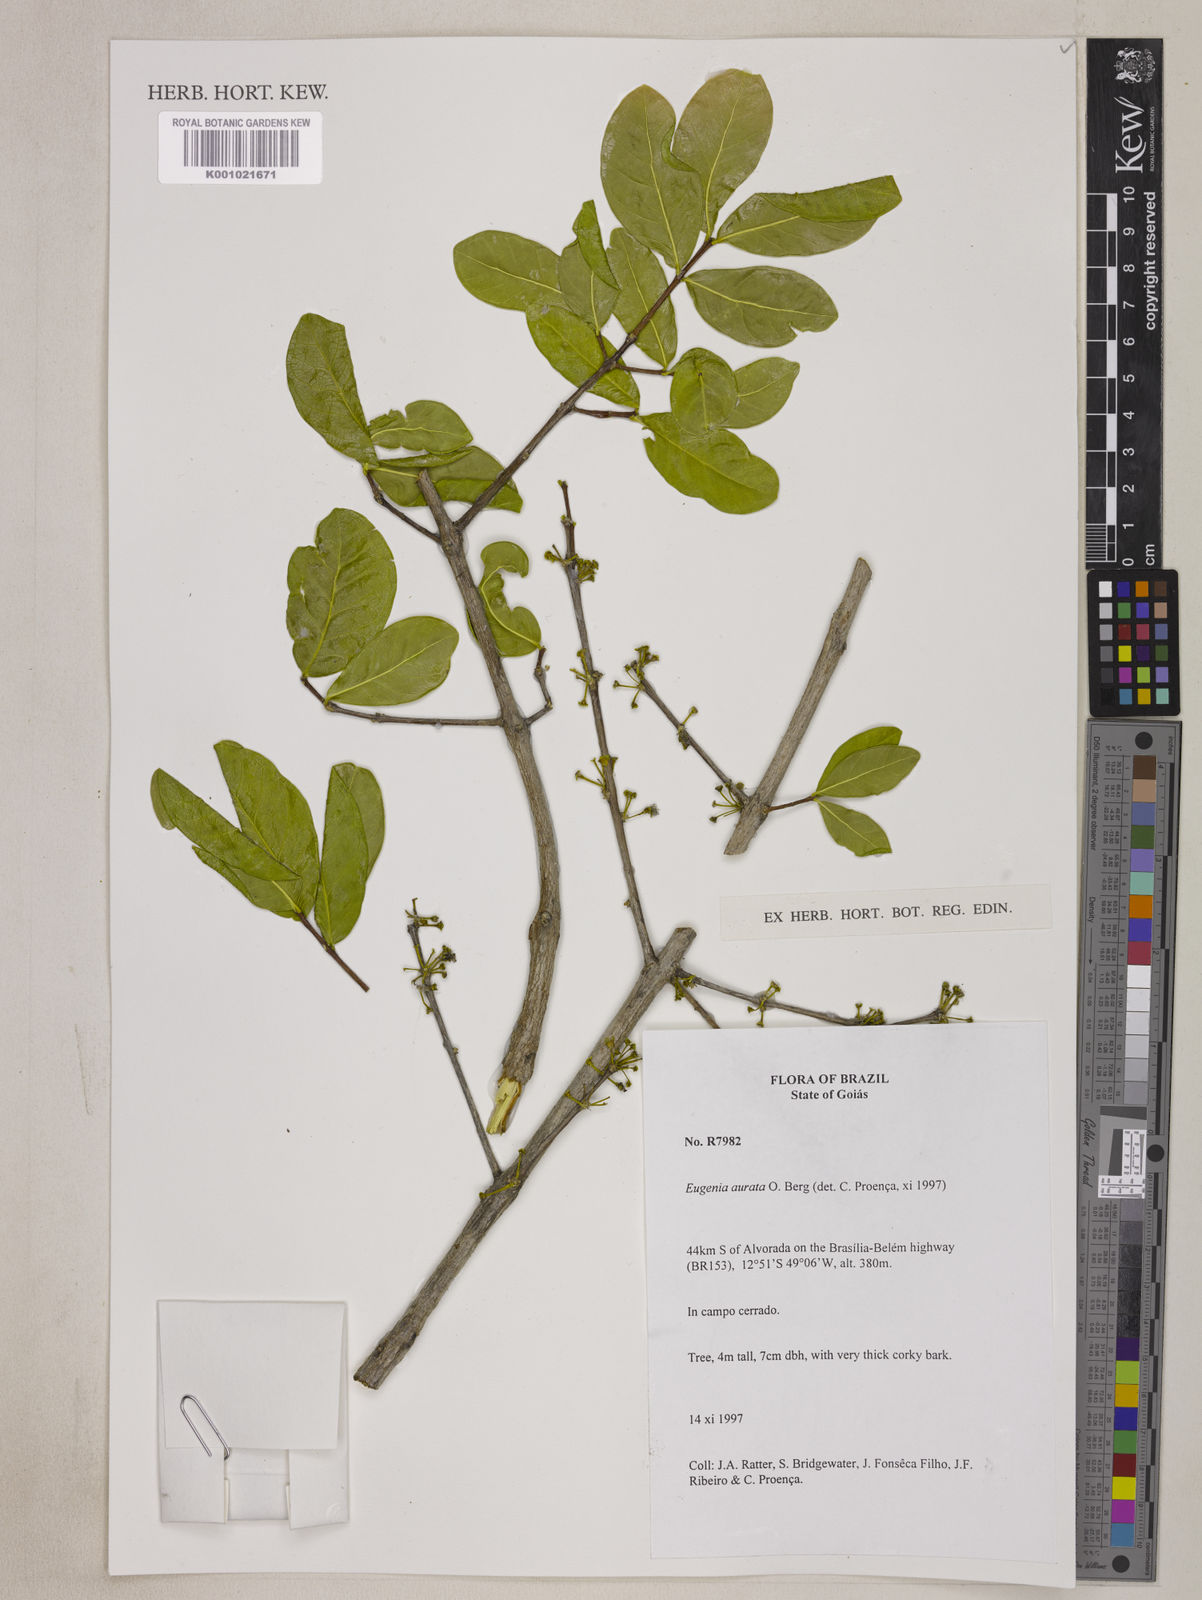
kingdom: Plantae
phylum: Tracheophyta
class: Magnoliopsida
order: Myrtales
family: Myrtaceae
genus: Eugenia
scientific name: Eugenia aurata
